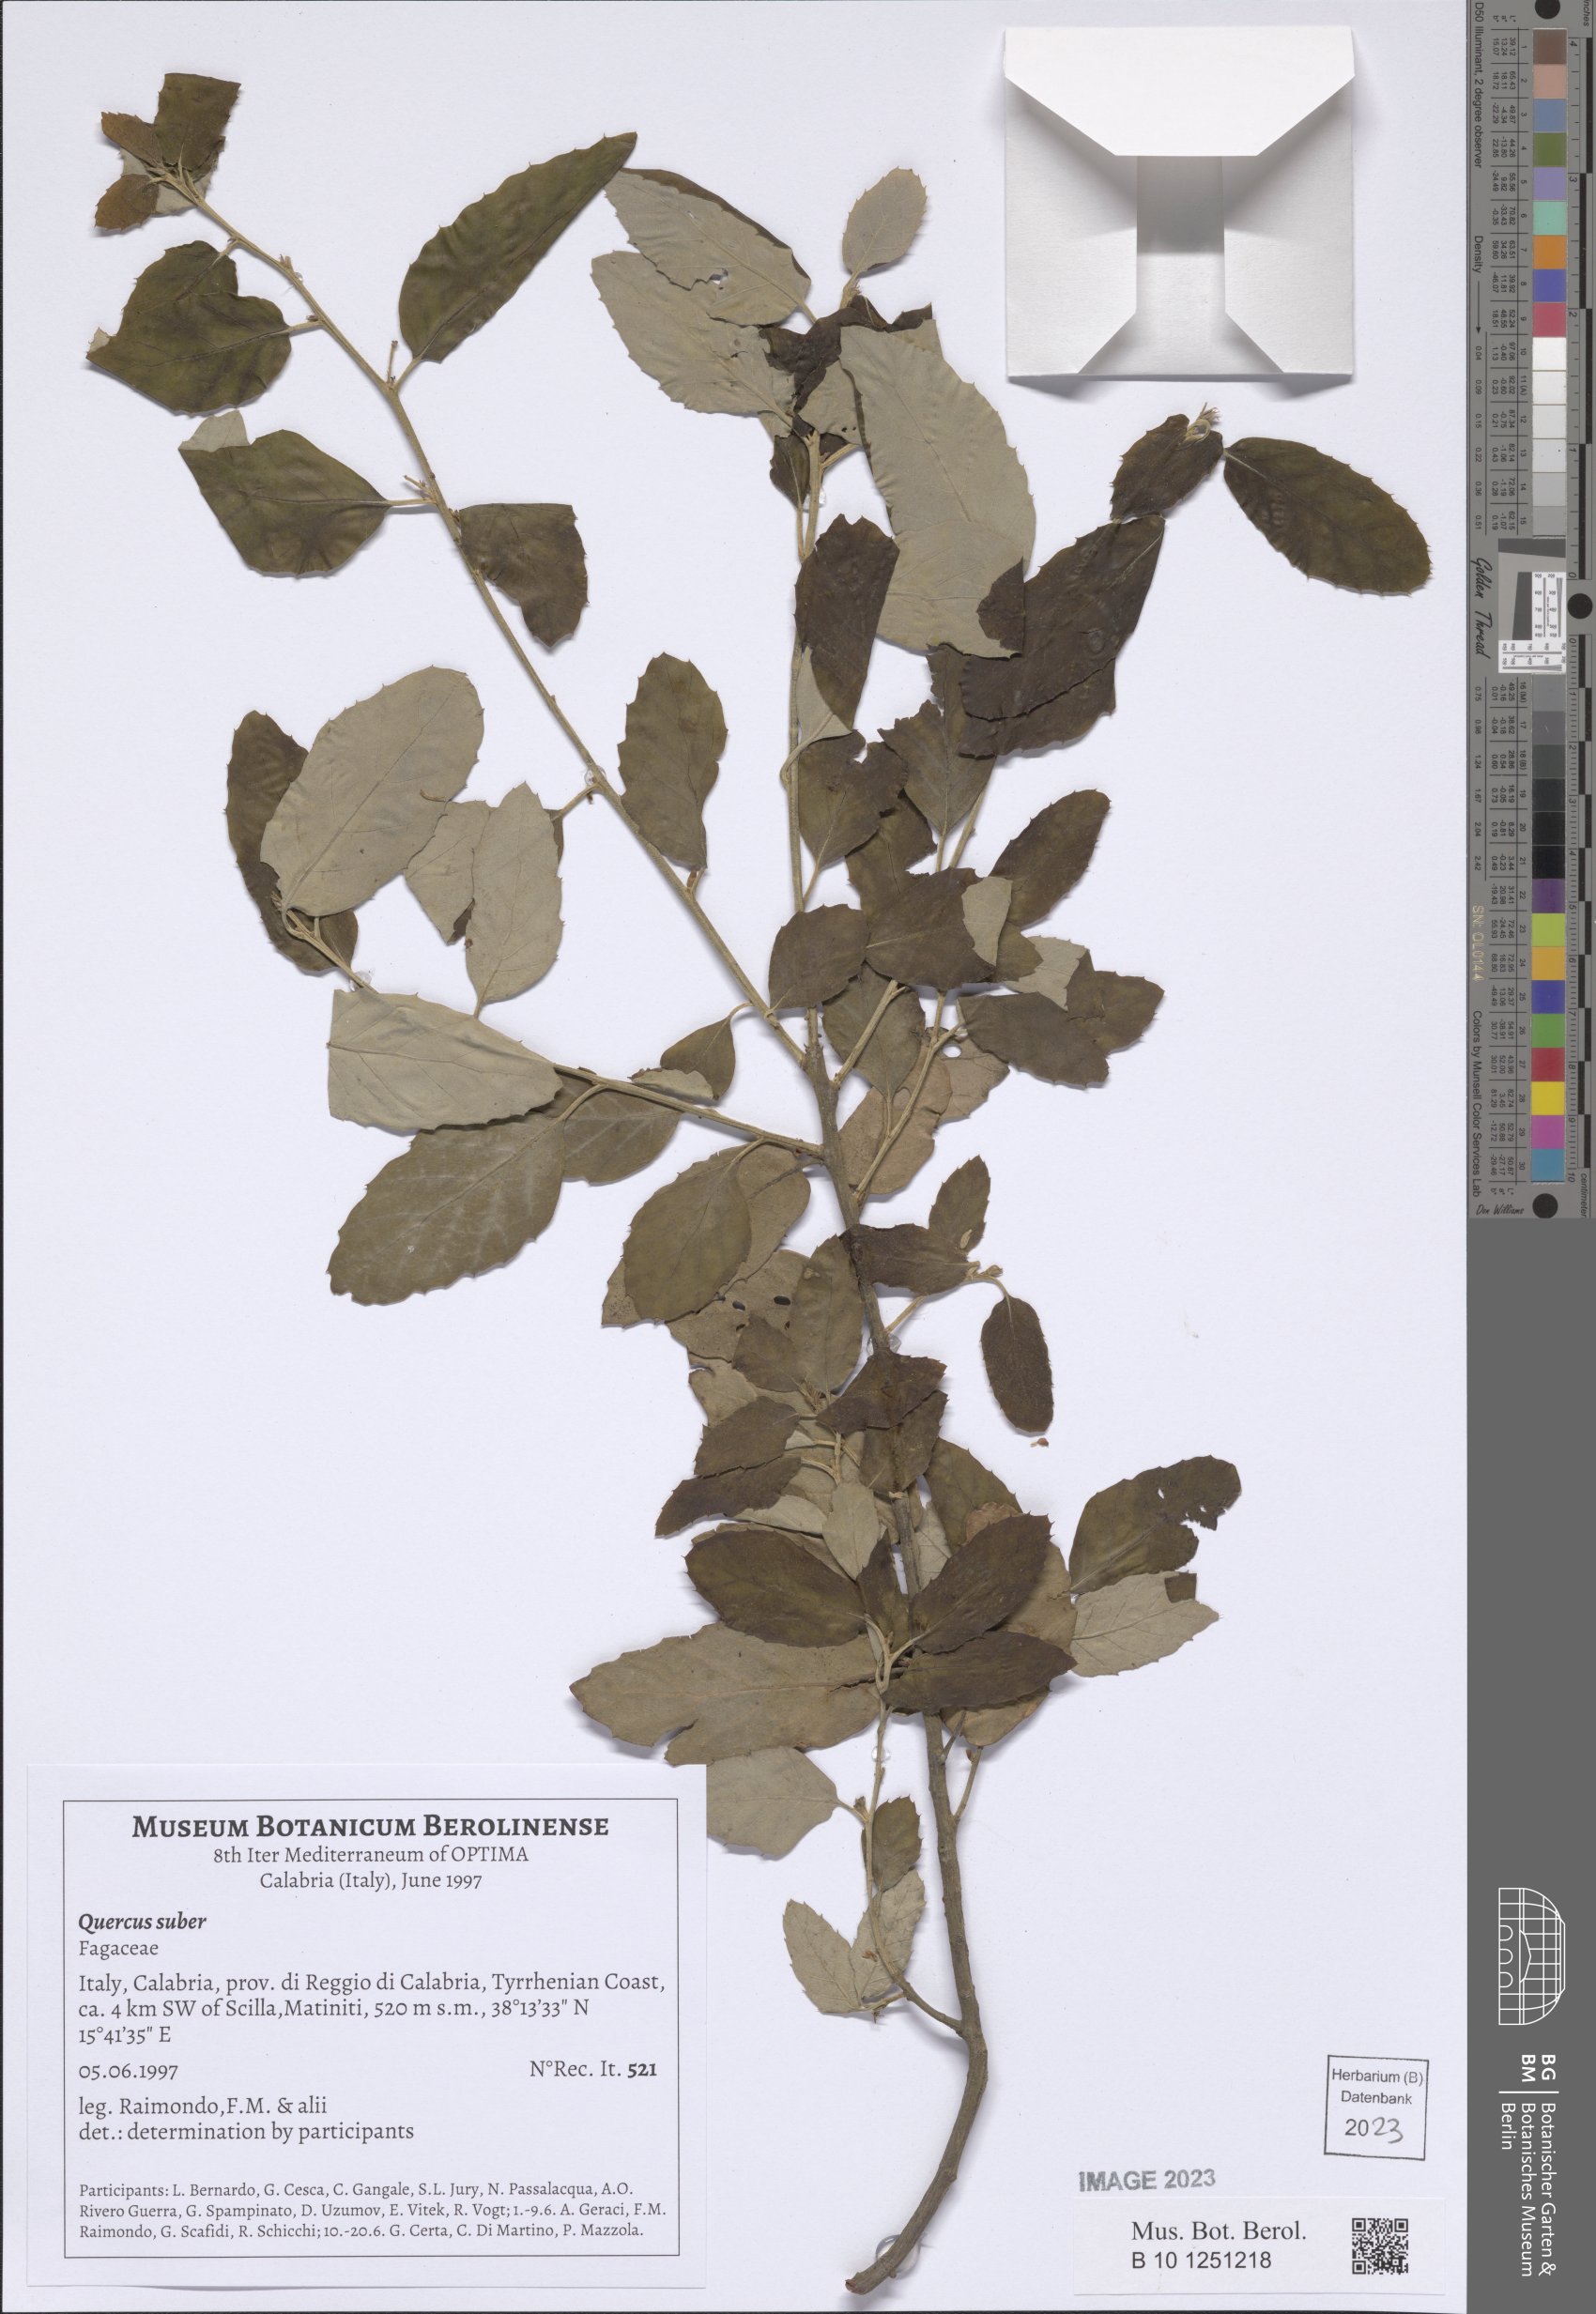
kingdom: Plantae
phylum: Tracheophyta
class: Magnoliopsida
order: Fagales
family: Fagaceae
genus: Quercus
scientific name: Quercus suber
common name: Cork oak
